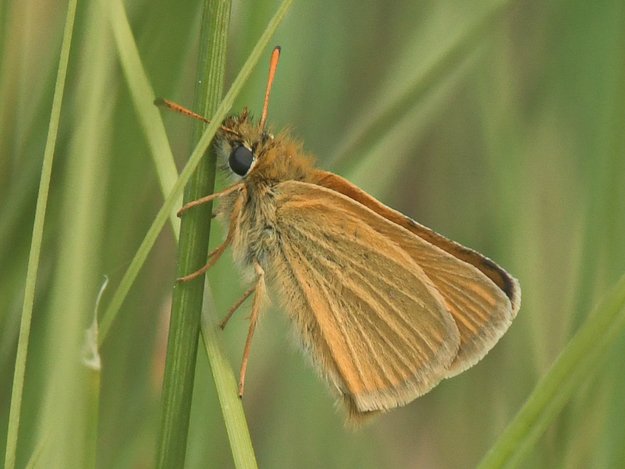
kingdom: Animalia
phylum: Arthropoda
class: Insecta
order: Lepidoptera
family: Hesperiidae
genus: Thymelicus
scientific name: Thymelicus lineola
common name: European Skipper
